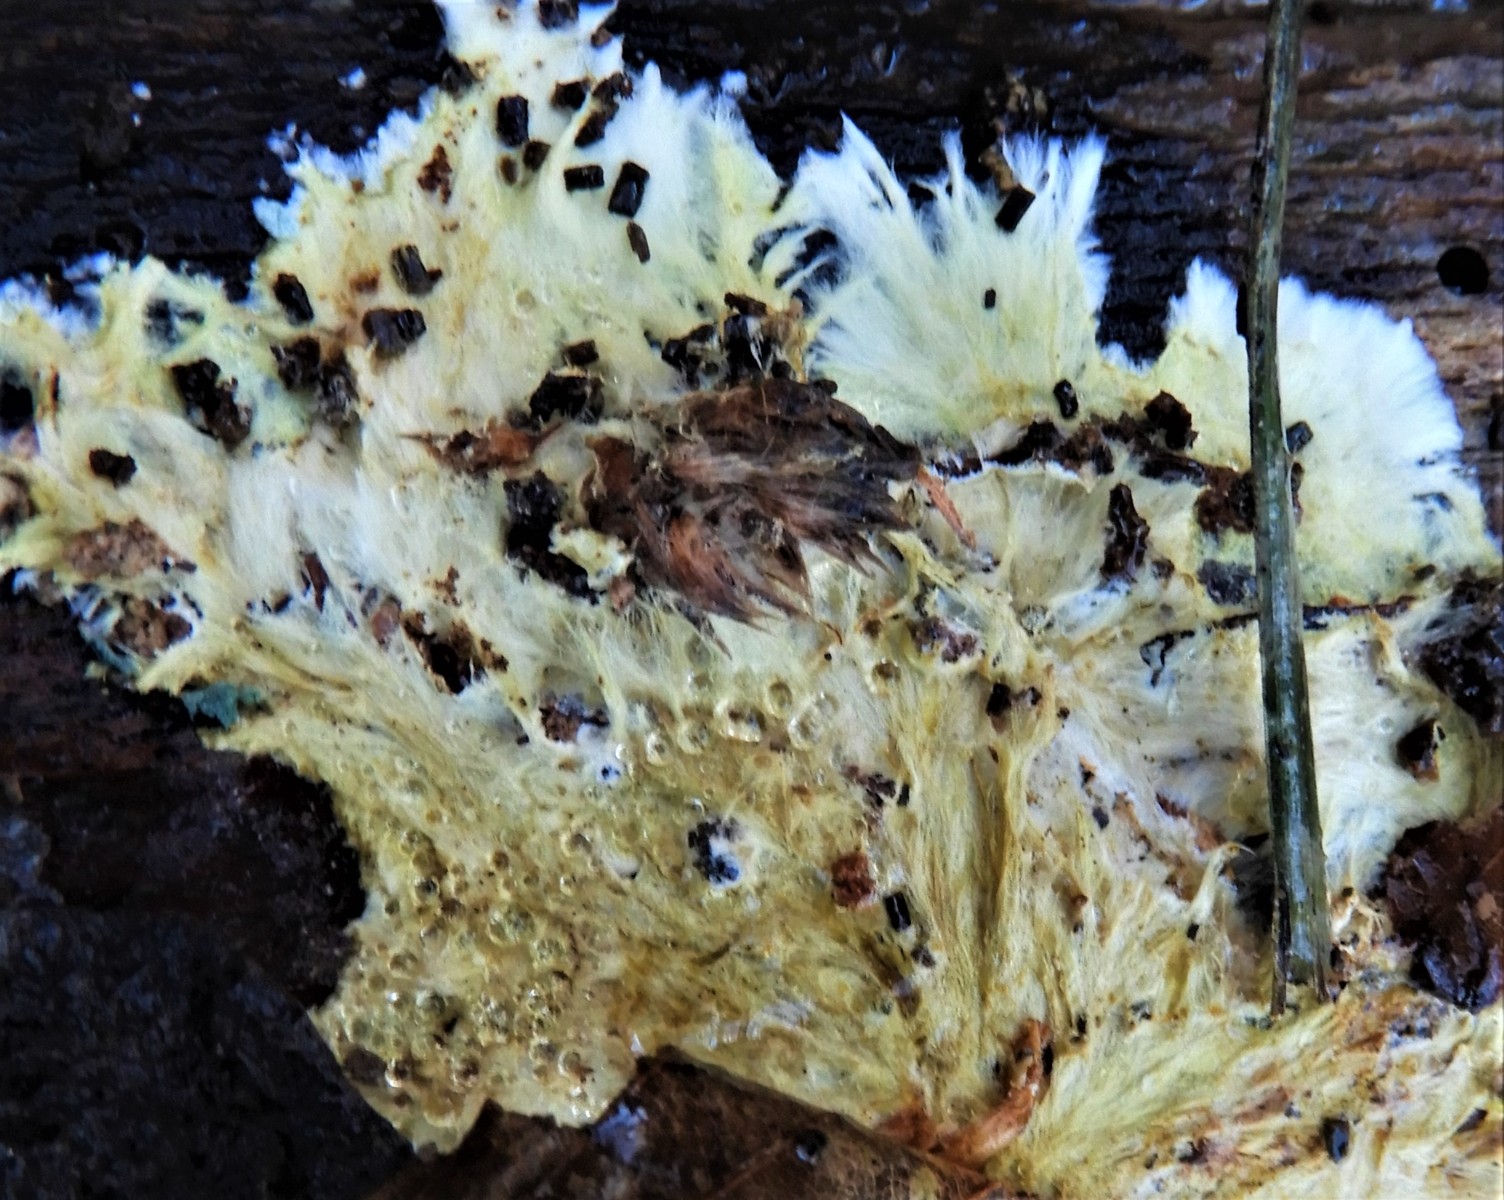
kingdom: Fungi
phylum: Basidiomycota
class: Agaricomycetes
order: Russulales
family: Xenasmataceae
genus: Xenasmatella
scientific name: Xenasmatella vaga
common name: svovl-strenghinde
